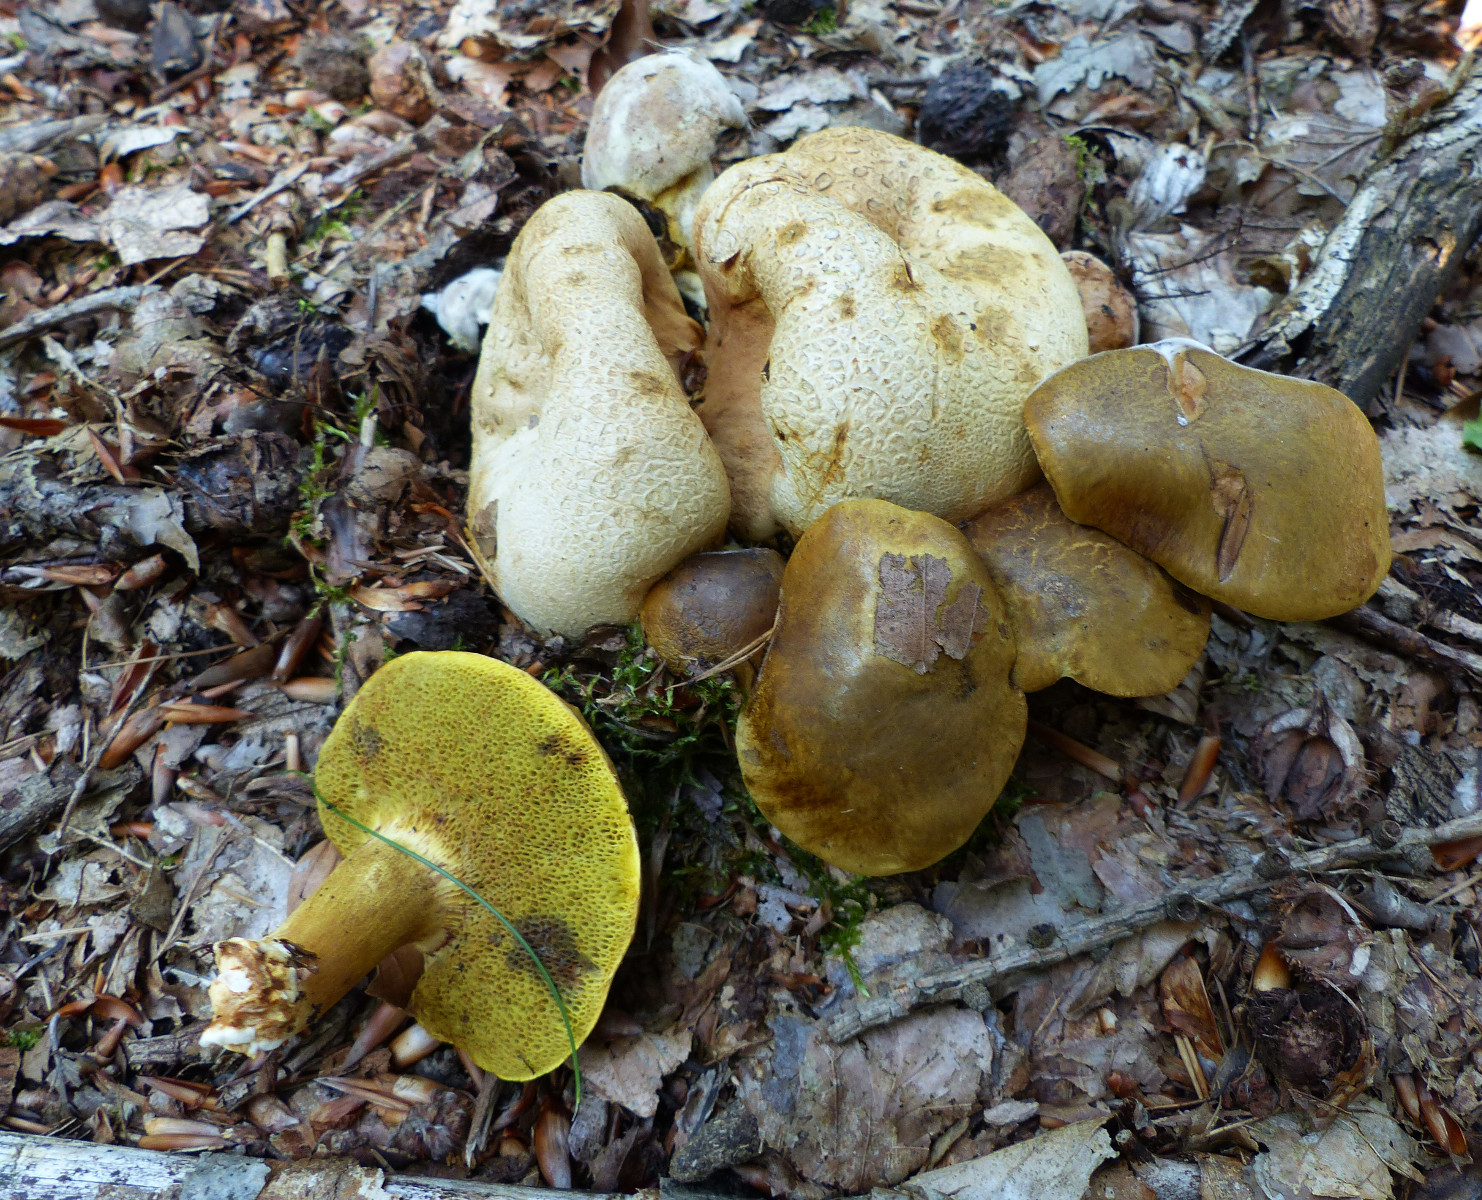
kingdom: Fungi
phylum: Basidiomycota
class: Agaricomycetes
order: Boletales
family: Boletaceae
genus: Pseudoboletus
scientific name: Pseudoboletus parasiticus
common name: snyltende rørhat
